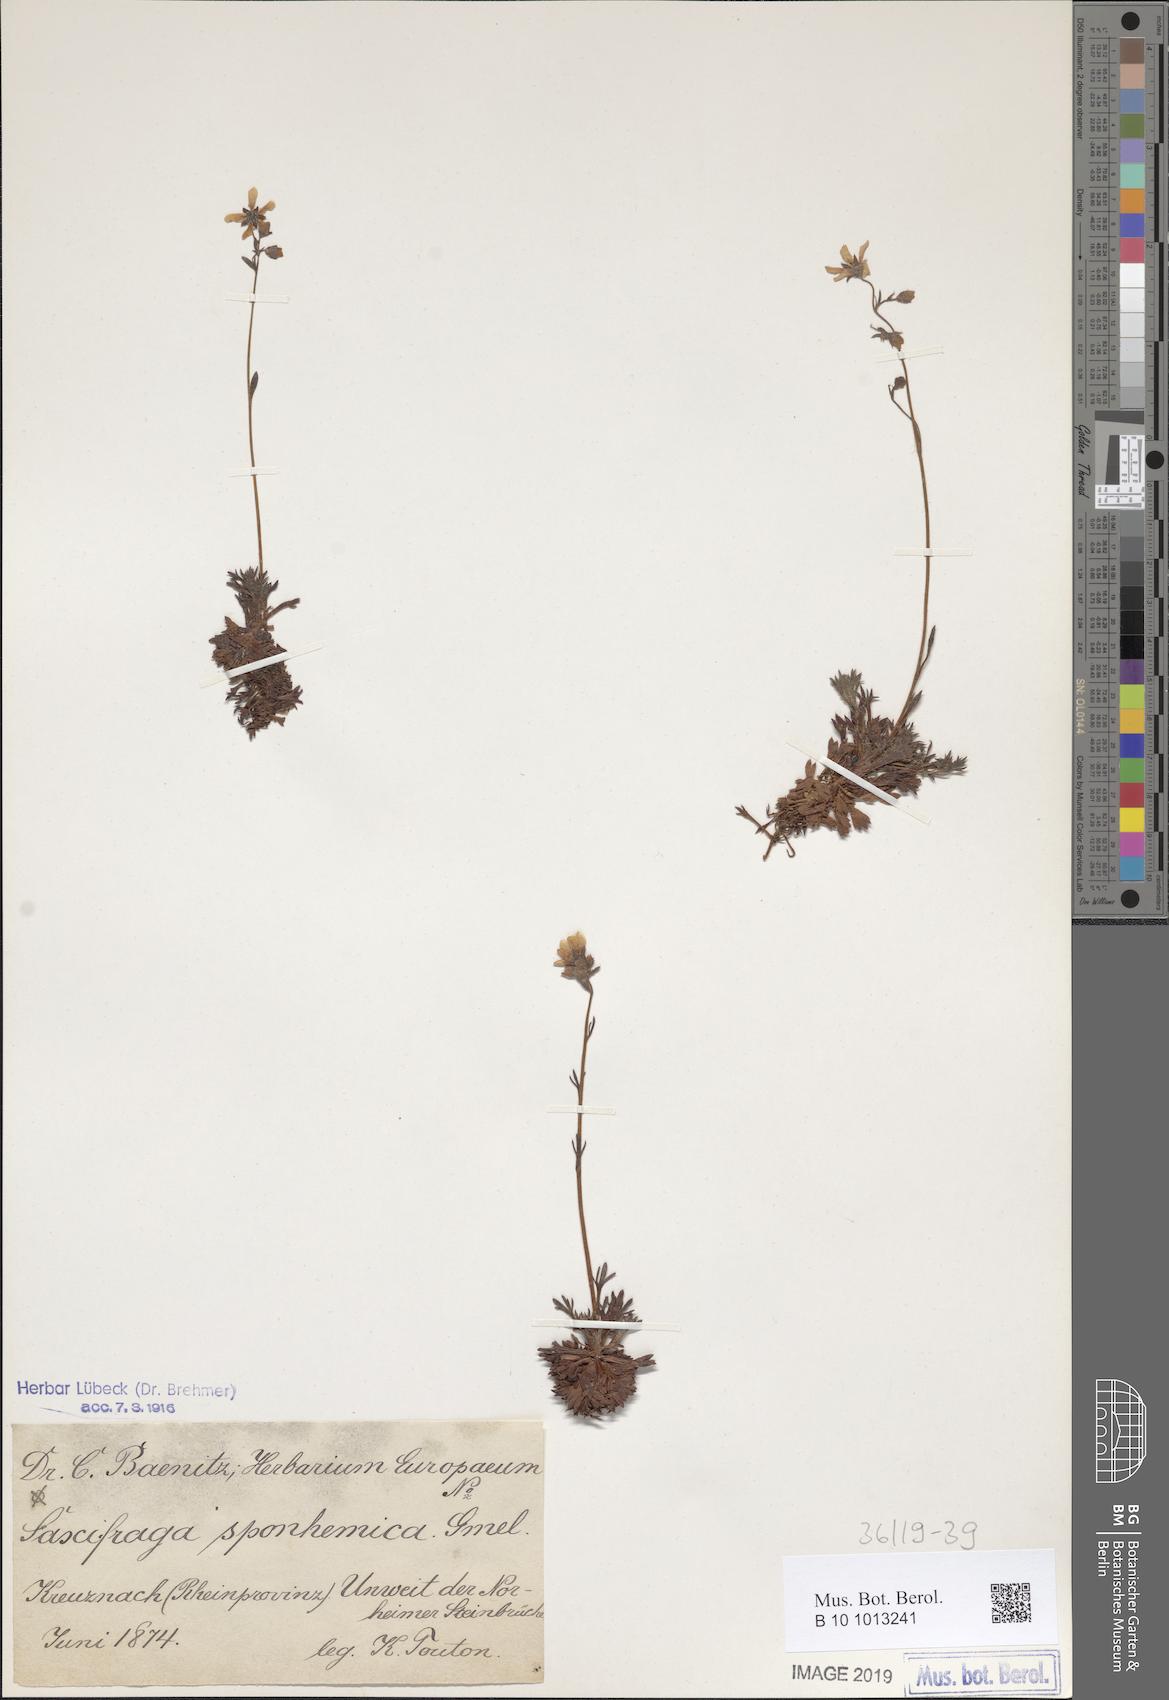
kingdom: Plantae
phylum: Tracheophyta
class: Magnoliopsida
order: Saxifragales
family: Saxifragaceae
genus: Saxifraga
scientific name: Saxifraga rosacea
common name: Irish saxifrage
